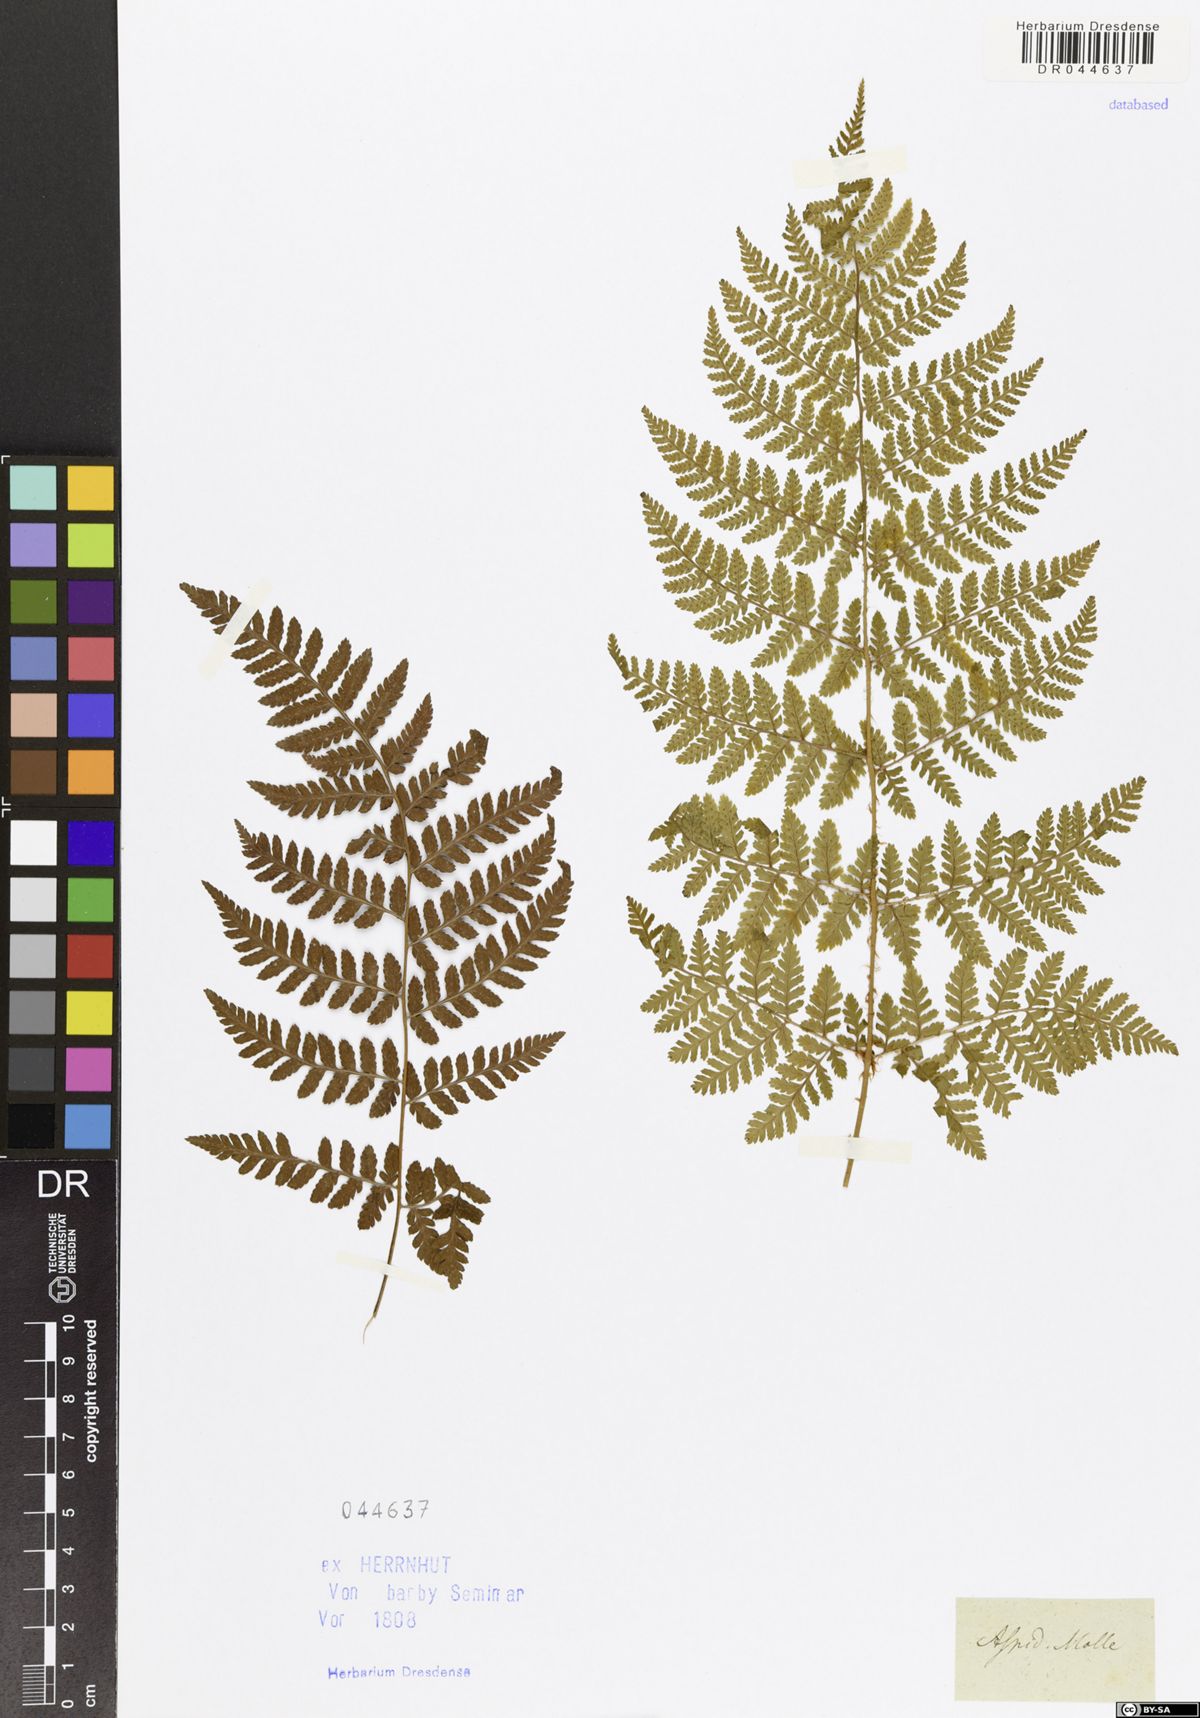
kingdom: Plantae
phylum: Tracheophyta
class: Polypodiopsida
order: Polypodiales
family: Dryopteridaceae
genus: Dryopteris
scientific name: Dryopteris dilatata
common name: Broad buckler-fern
